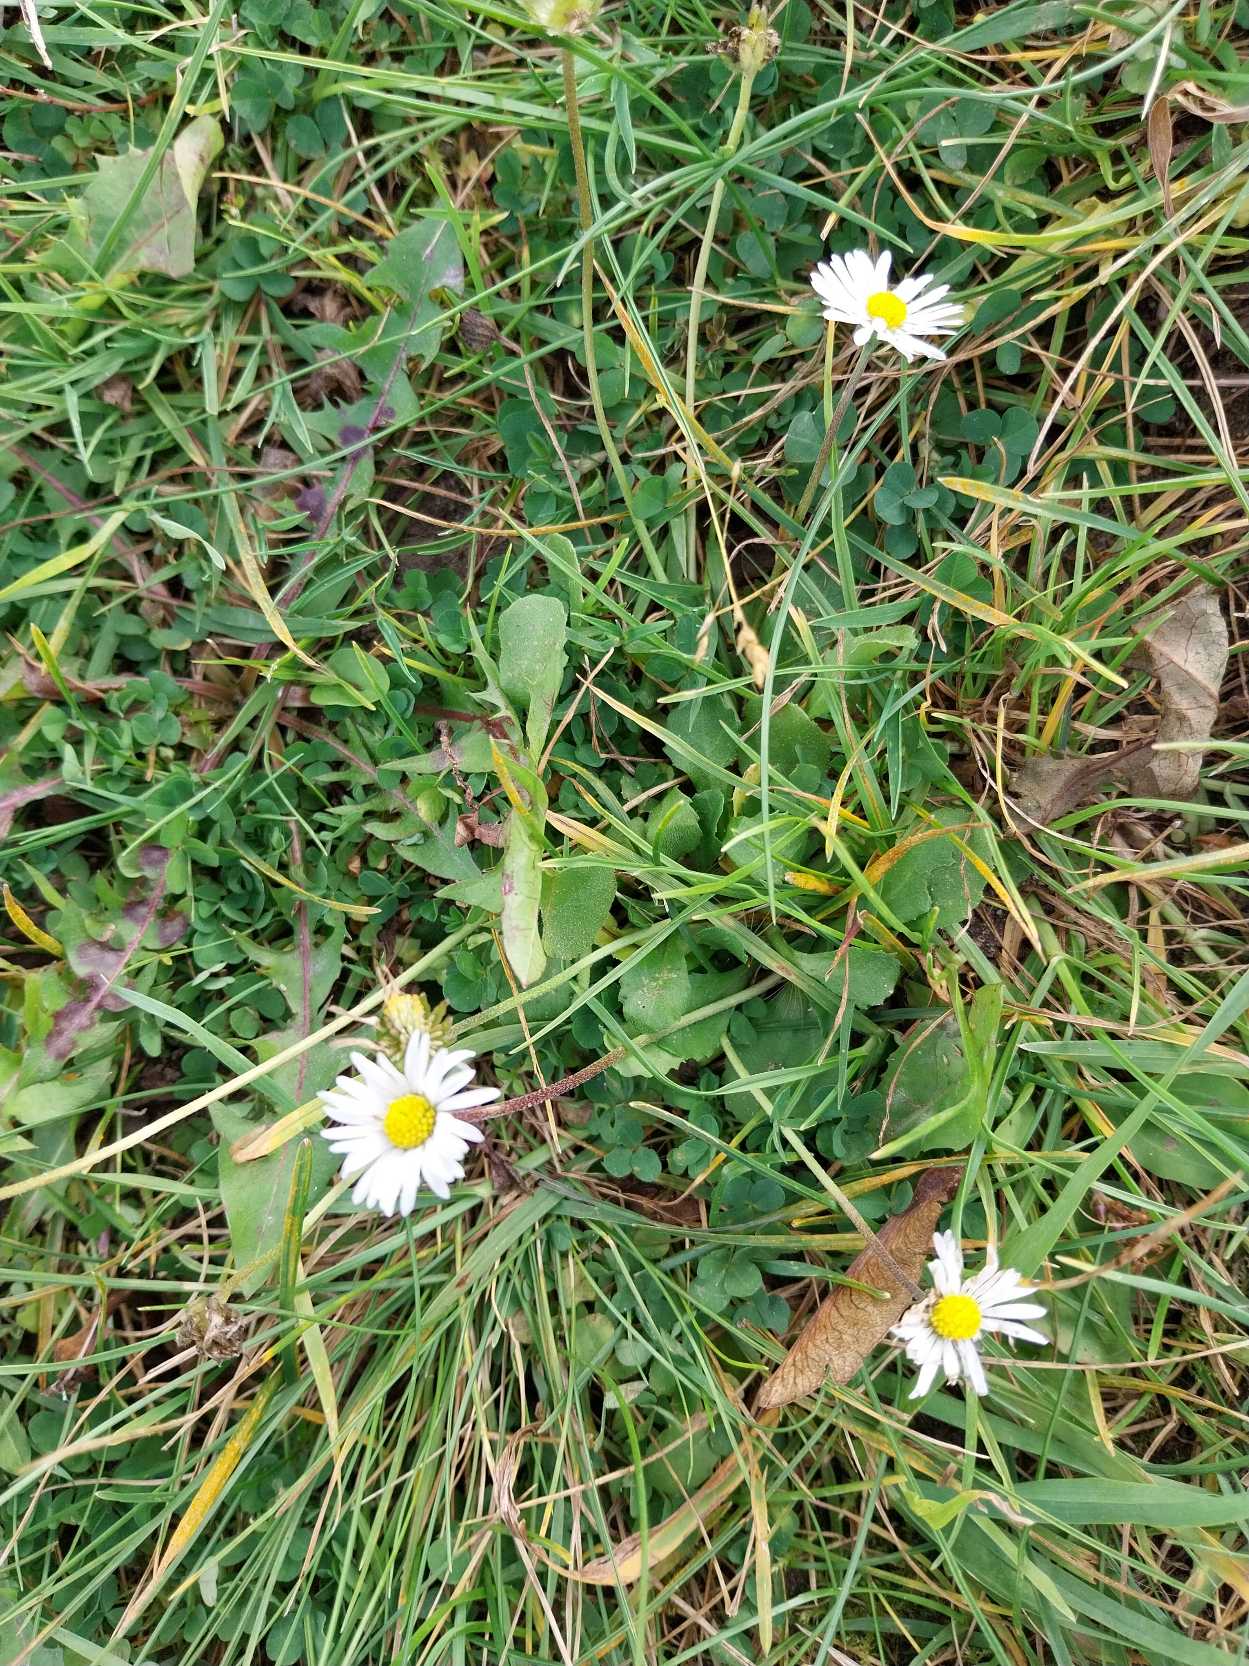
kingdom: Plantae
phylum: Tracheophyta
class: Magnoliopsida
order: Asterales
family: Asteraceae
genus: Bellis
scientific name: Bellis perennis
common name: Tusindfryd
